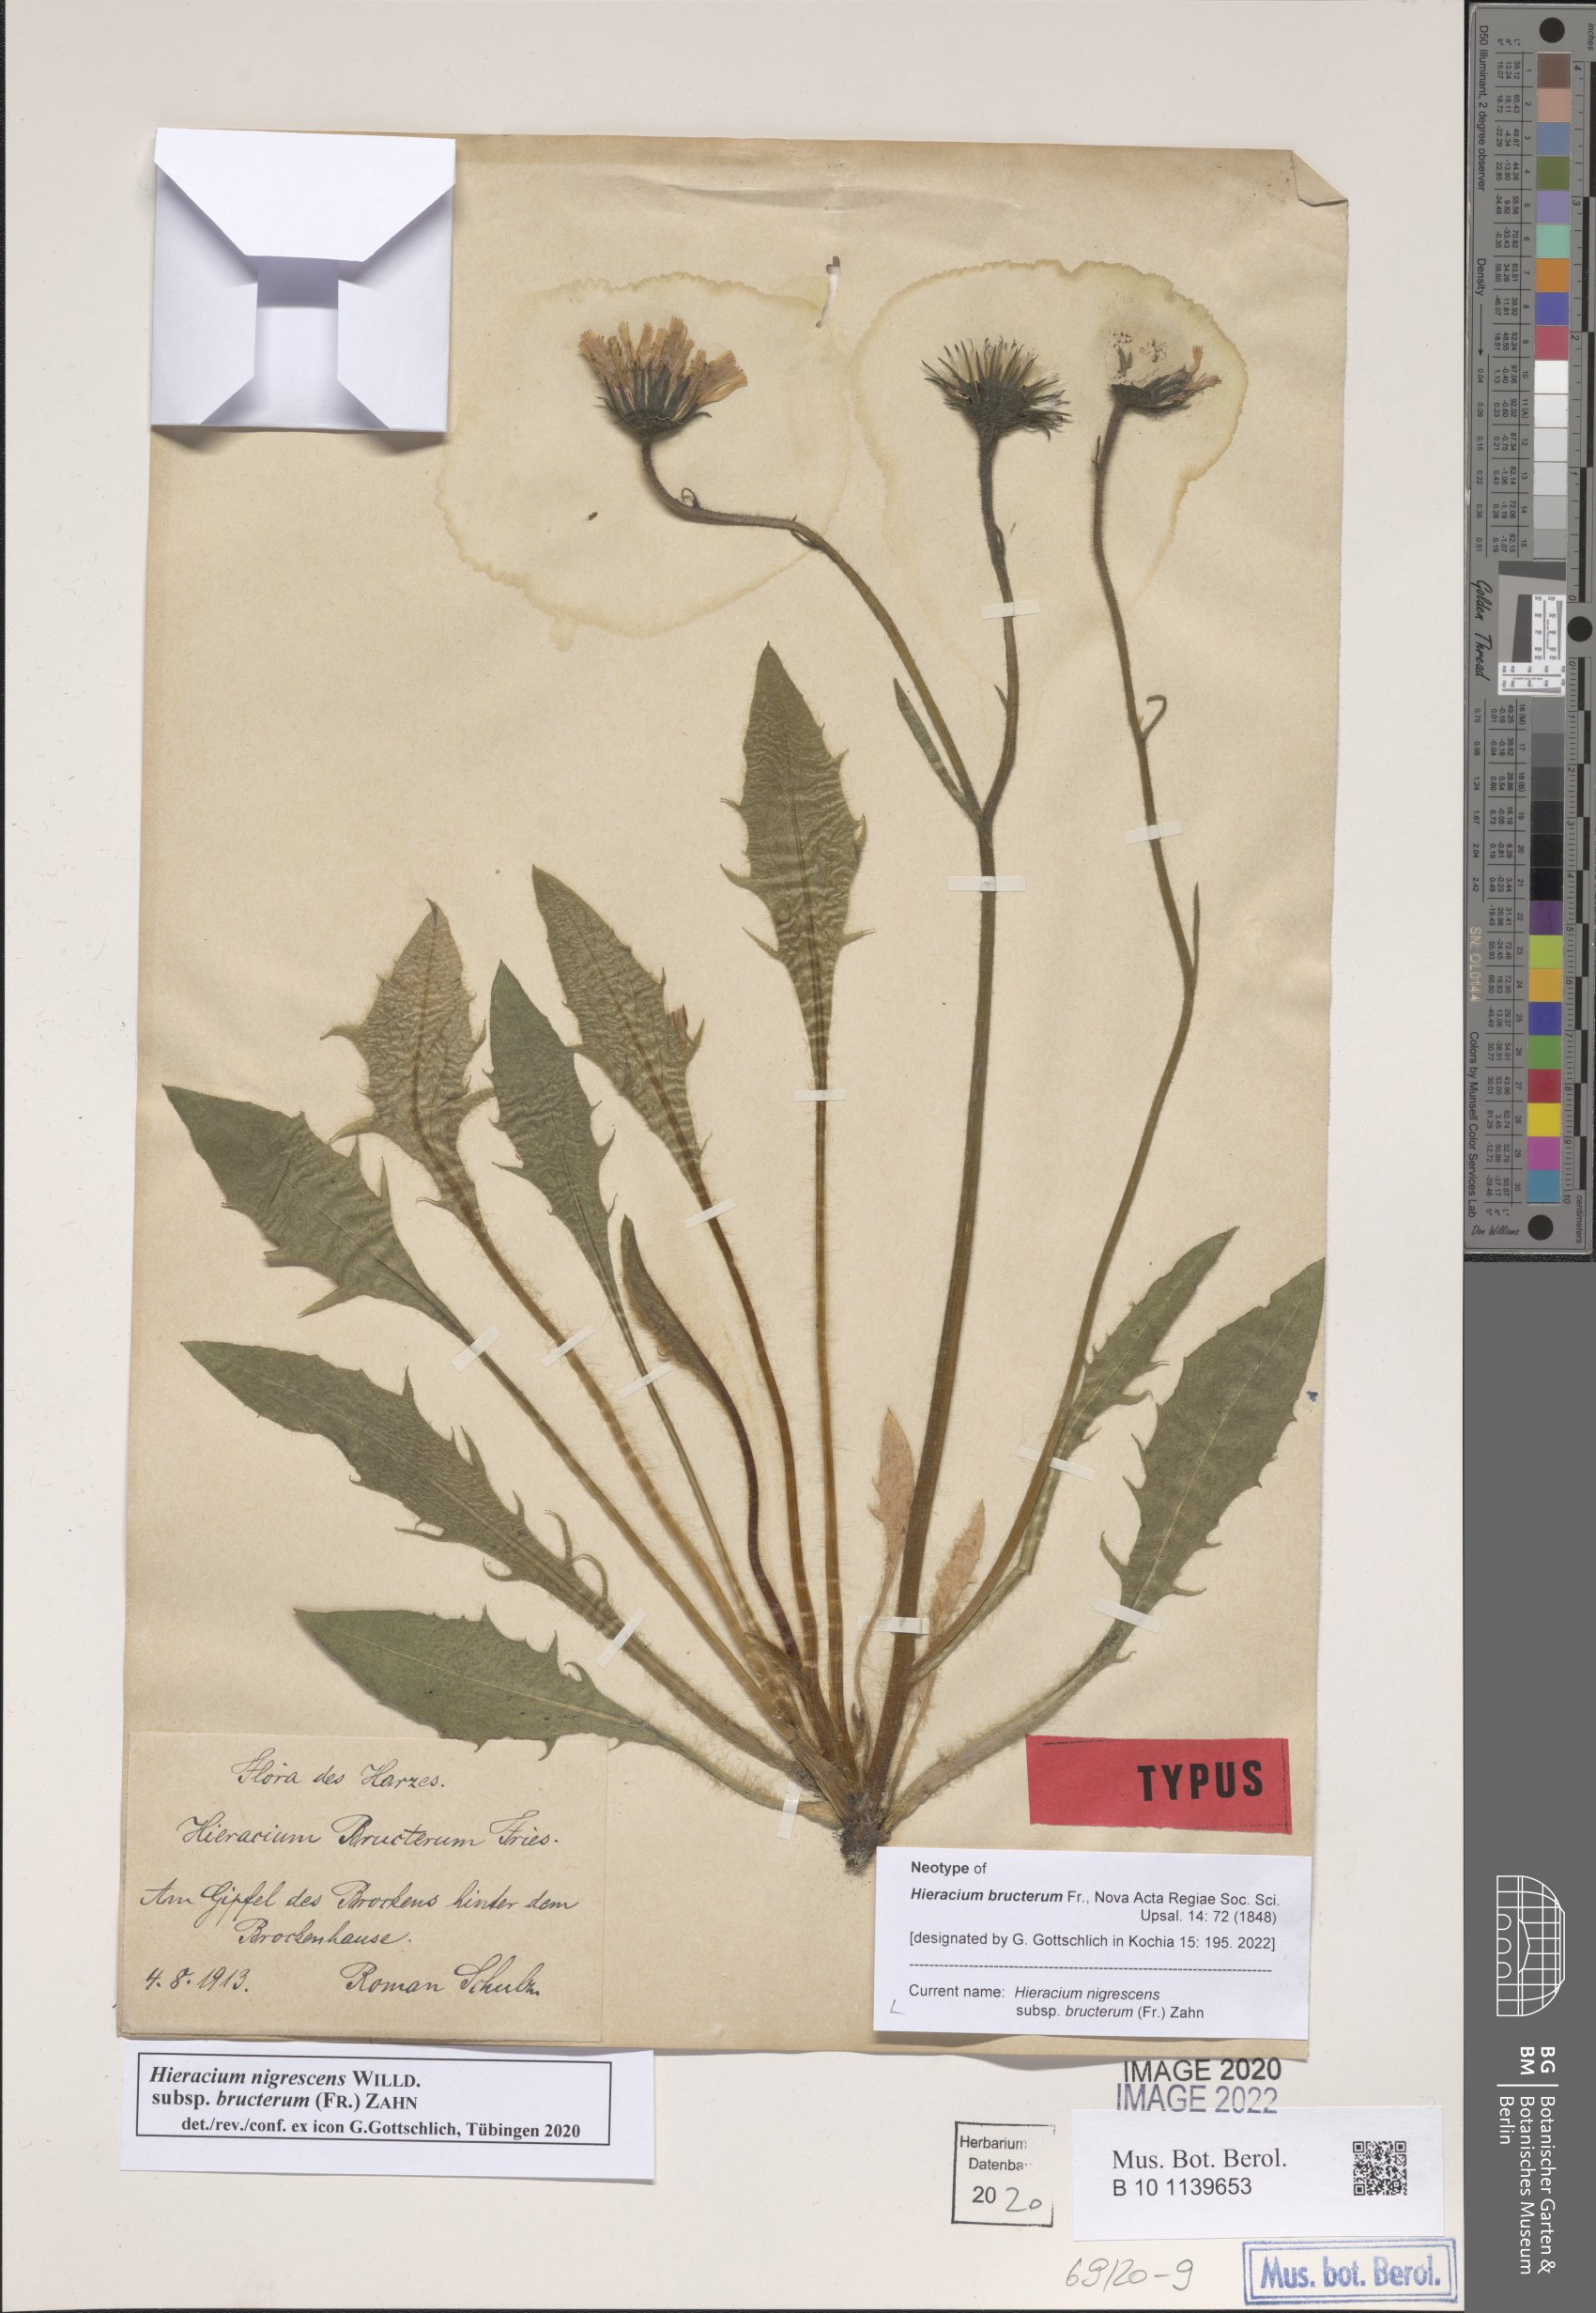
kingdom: Plantae
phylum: Tracheophyta
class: Magnoliopsida
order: Asterales
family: Asteraceae
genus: Hieracium
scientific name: Hieracium nigrescens
